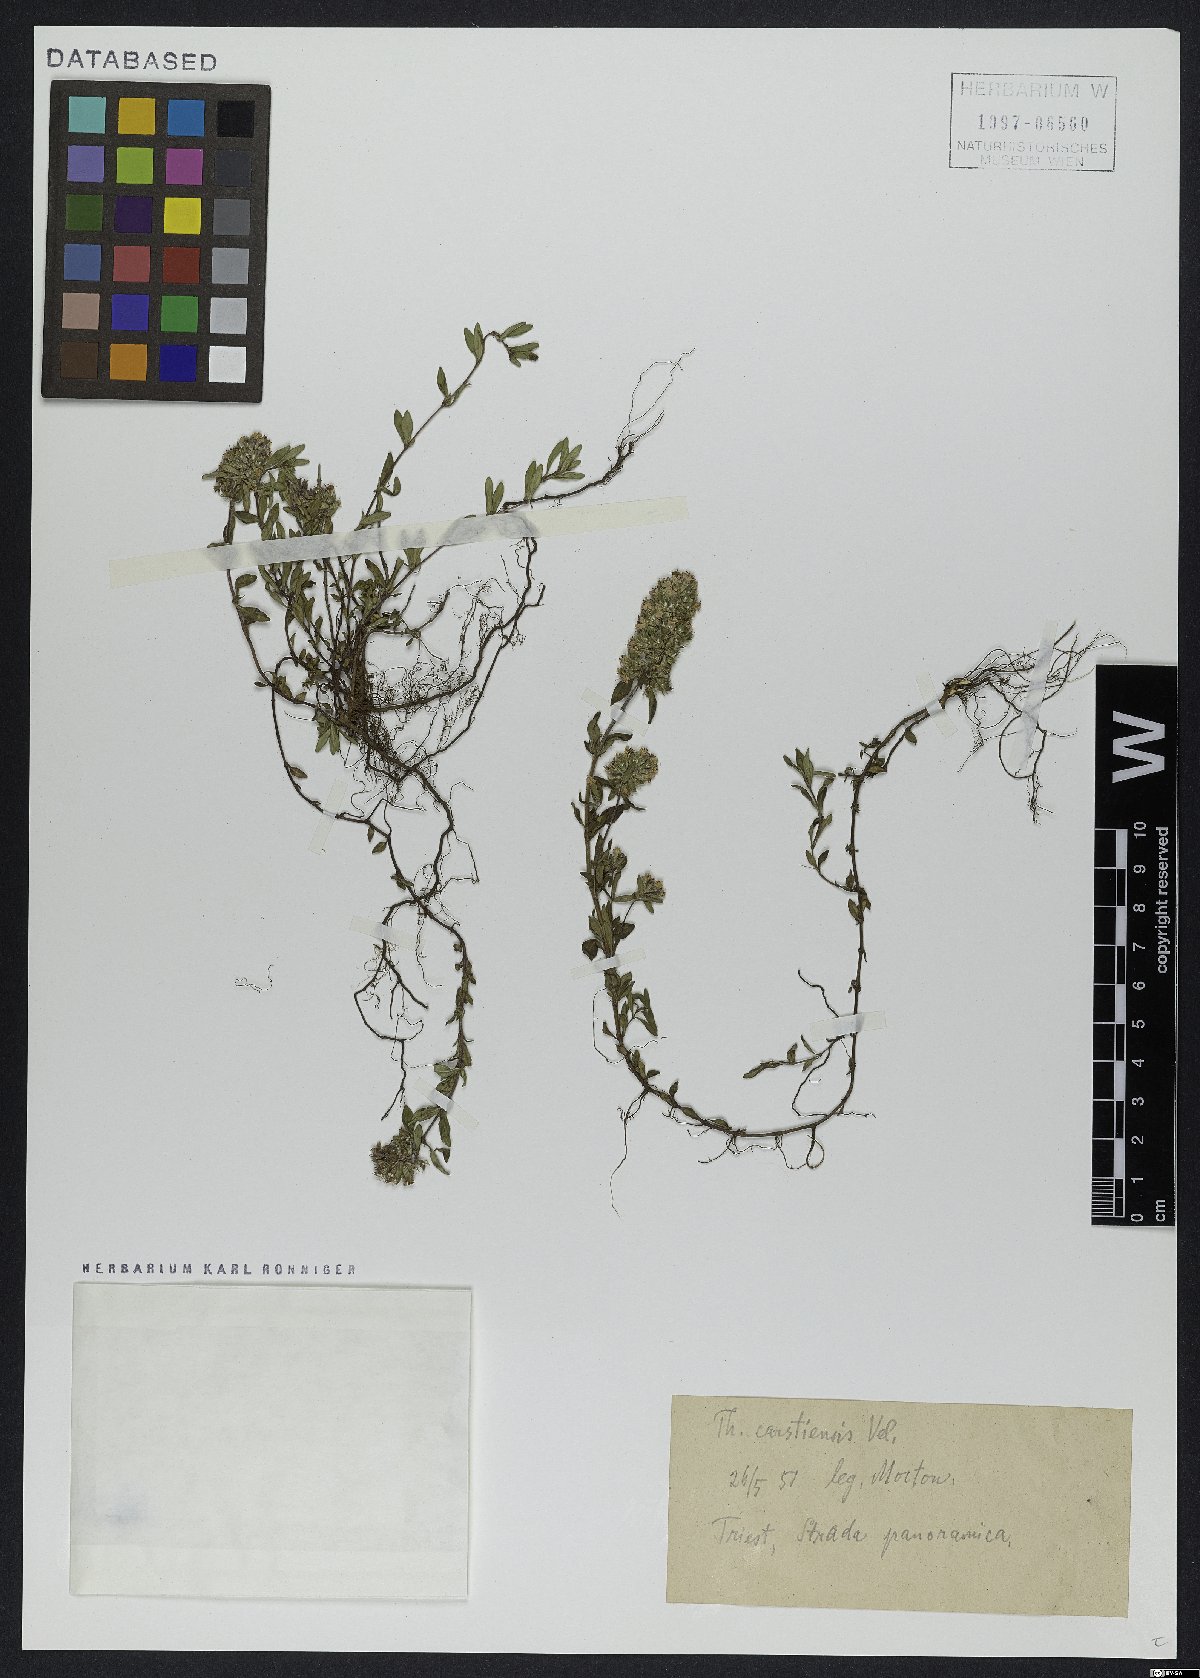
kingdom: Plantae
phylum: Tracheophyta
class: Magnoliopsida
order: Lamiales
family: Lamiaceae
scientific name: Lamiaceae
